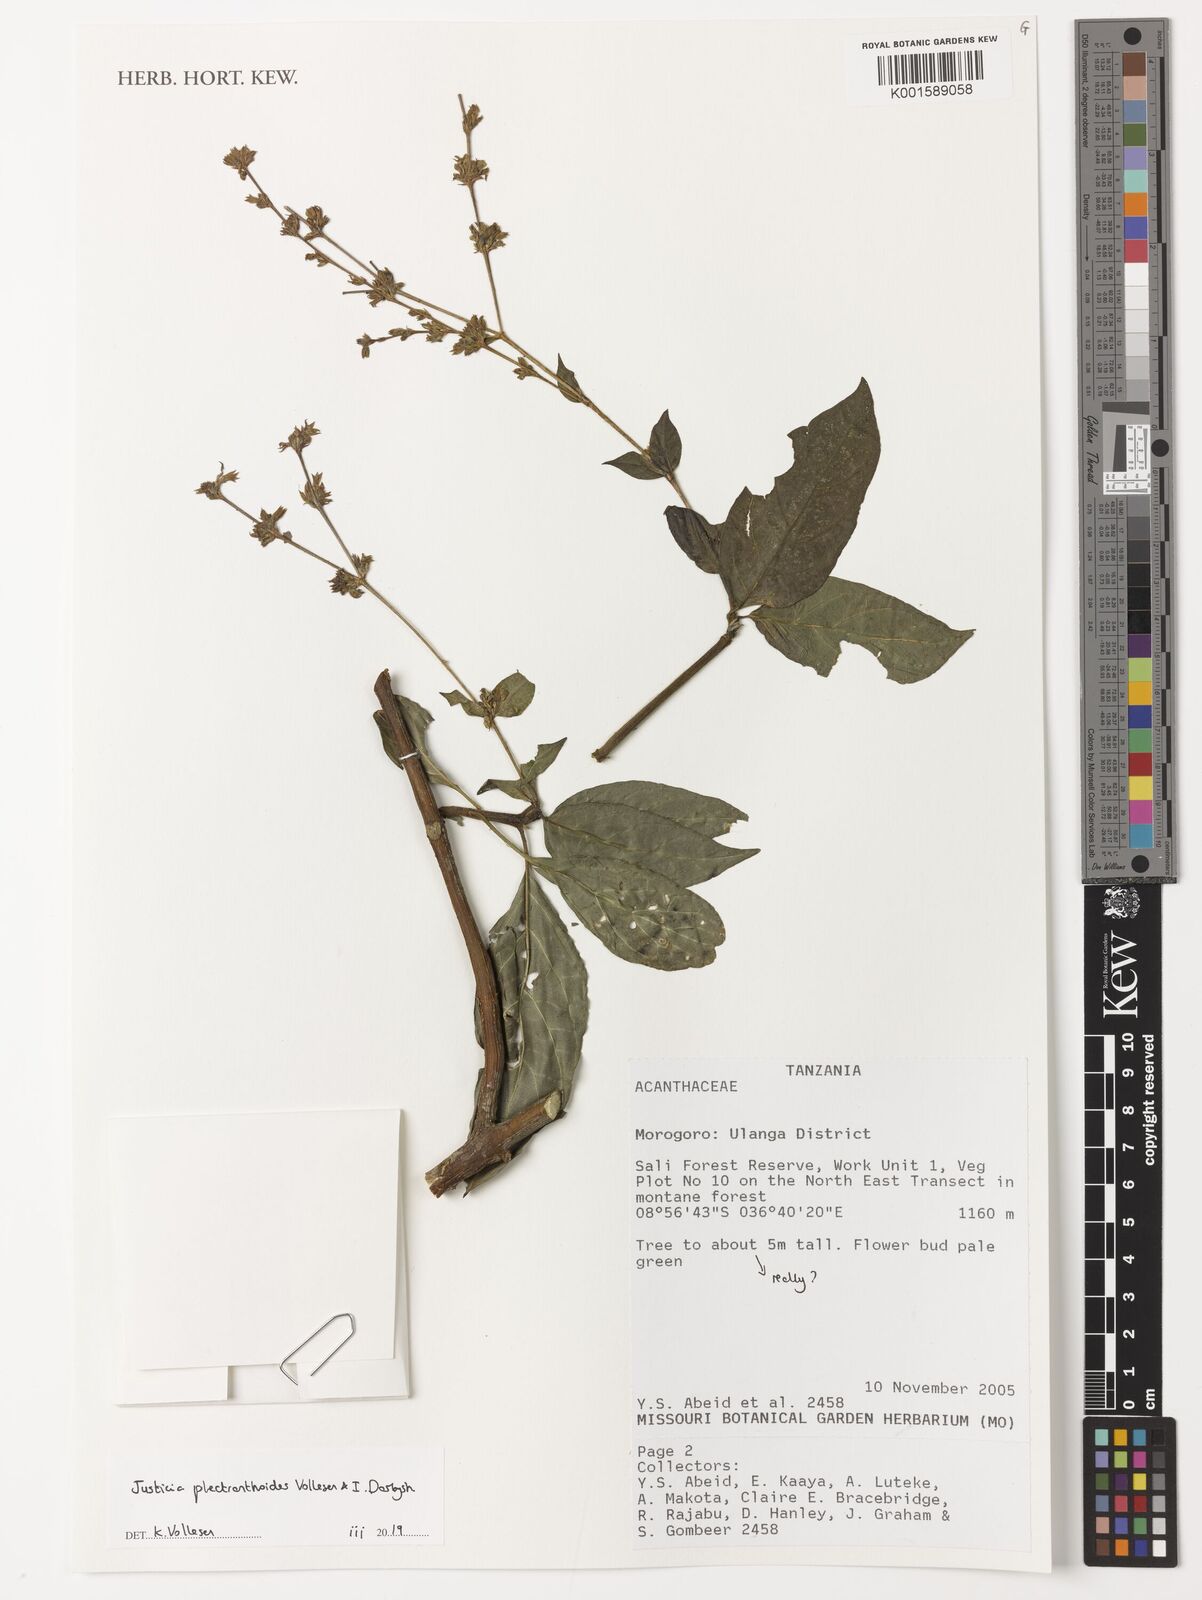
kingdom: Plantae
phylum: Tracheophyta
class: Magnoliopsida
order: Lamiales
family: Acanthaceae
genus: Justicia
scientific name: Justicia plectranthoides
